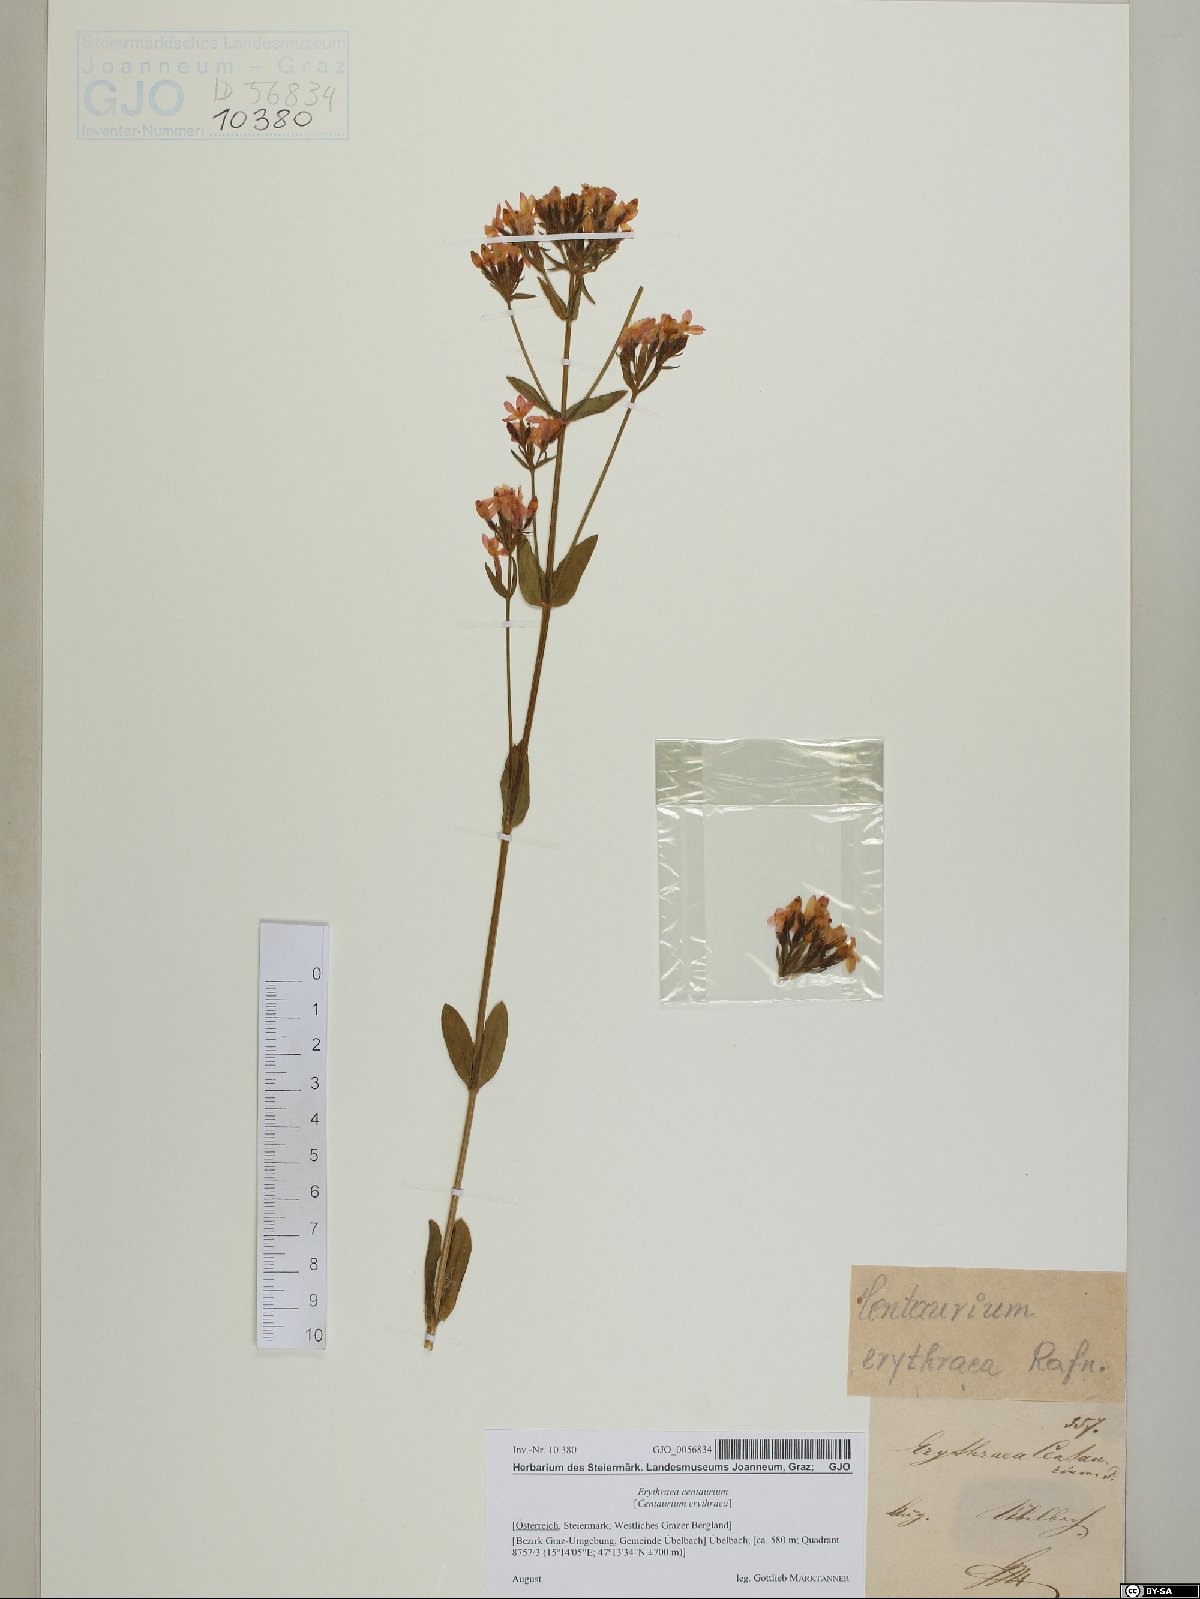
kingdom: Plantae
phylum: Tracheophyta
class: Magnoliopsida
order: Gentianales
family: Gentianaceae
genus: Centaurium
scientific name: Centaurium erythraea
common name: Common centaury
